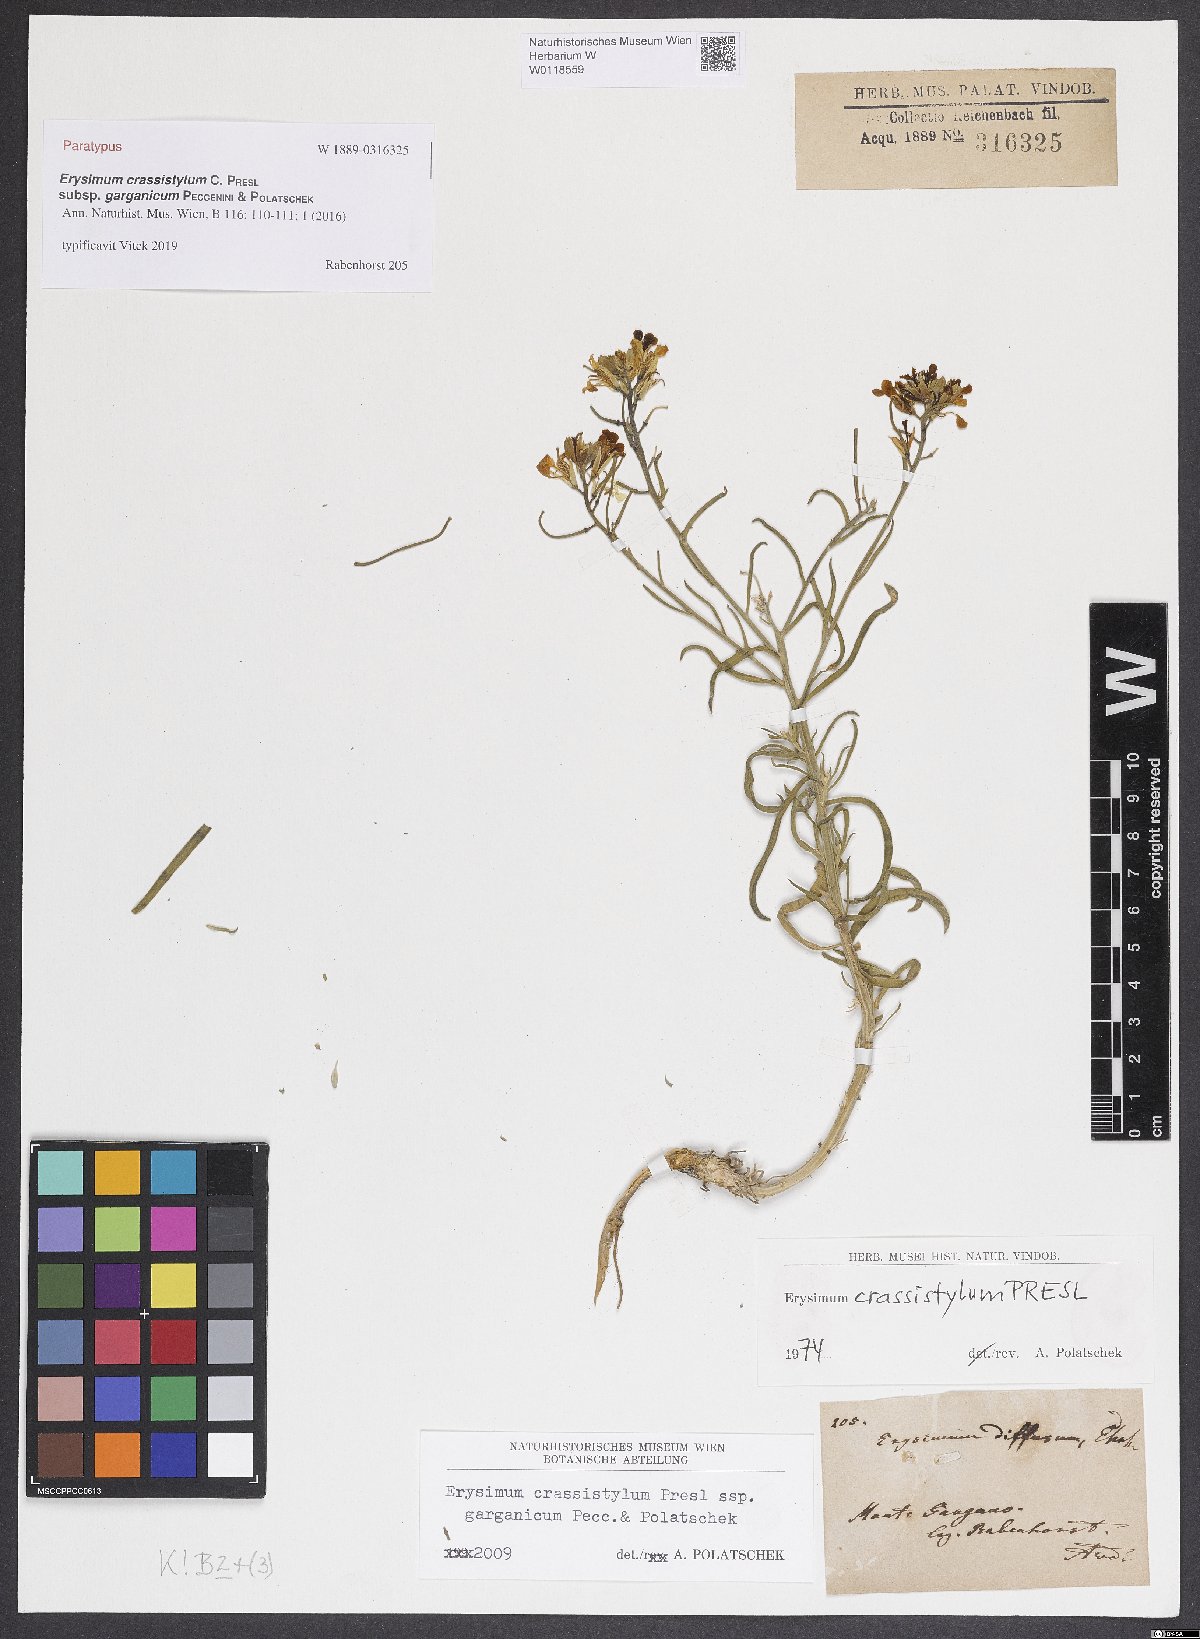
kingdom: Plantae
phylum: Tracheophyta
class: Magnoliopsida
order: Brassicales
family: Brassicaceae
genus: Erysimum
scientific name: Erysimum crassistylum
